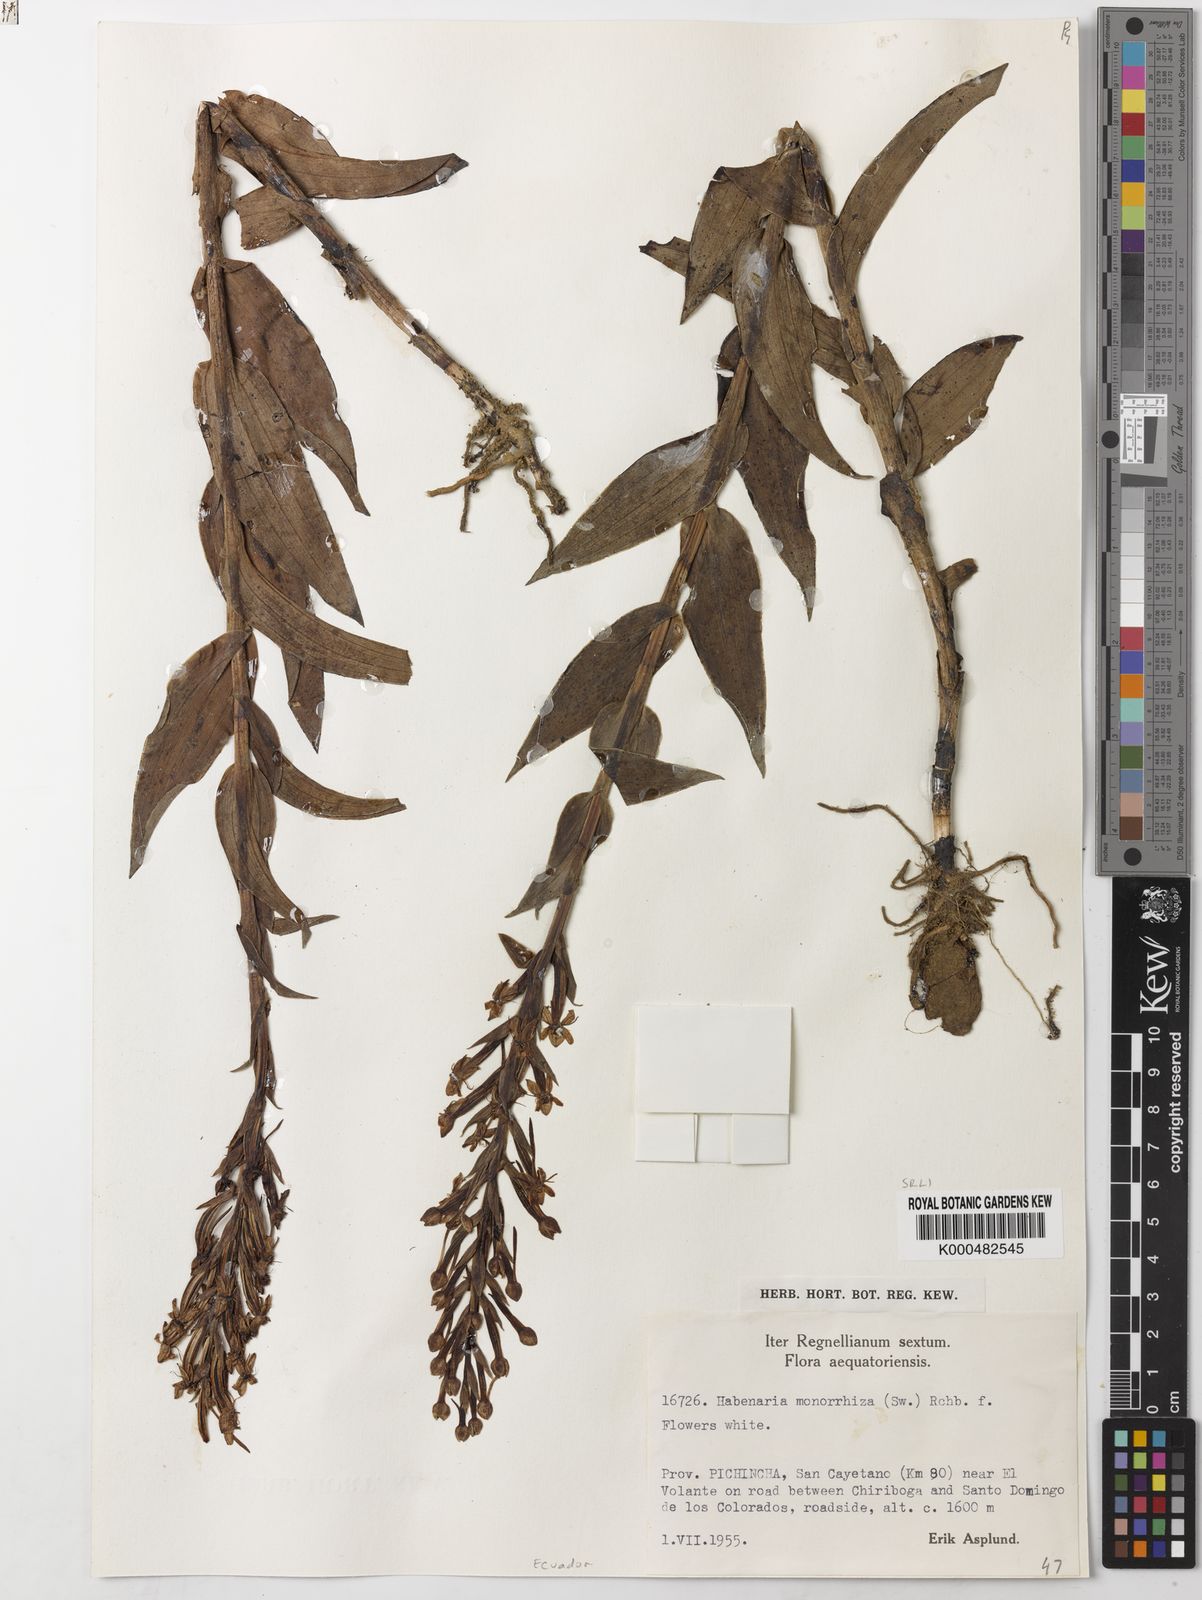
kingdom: Plantae
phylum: Tracheophyta
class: Liliopsida
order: Asparagales
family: Orchidaceae
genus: Habenaria
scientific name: Habenaria monorrhiza
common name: Tropical bog orchid
